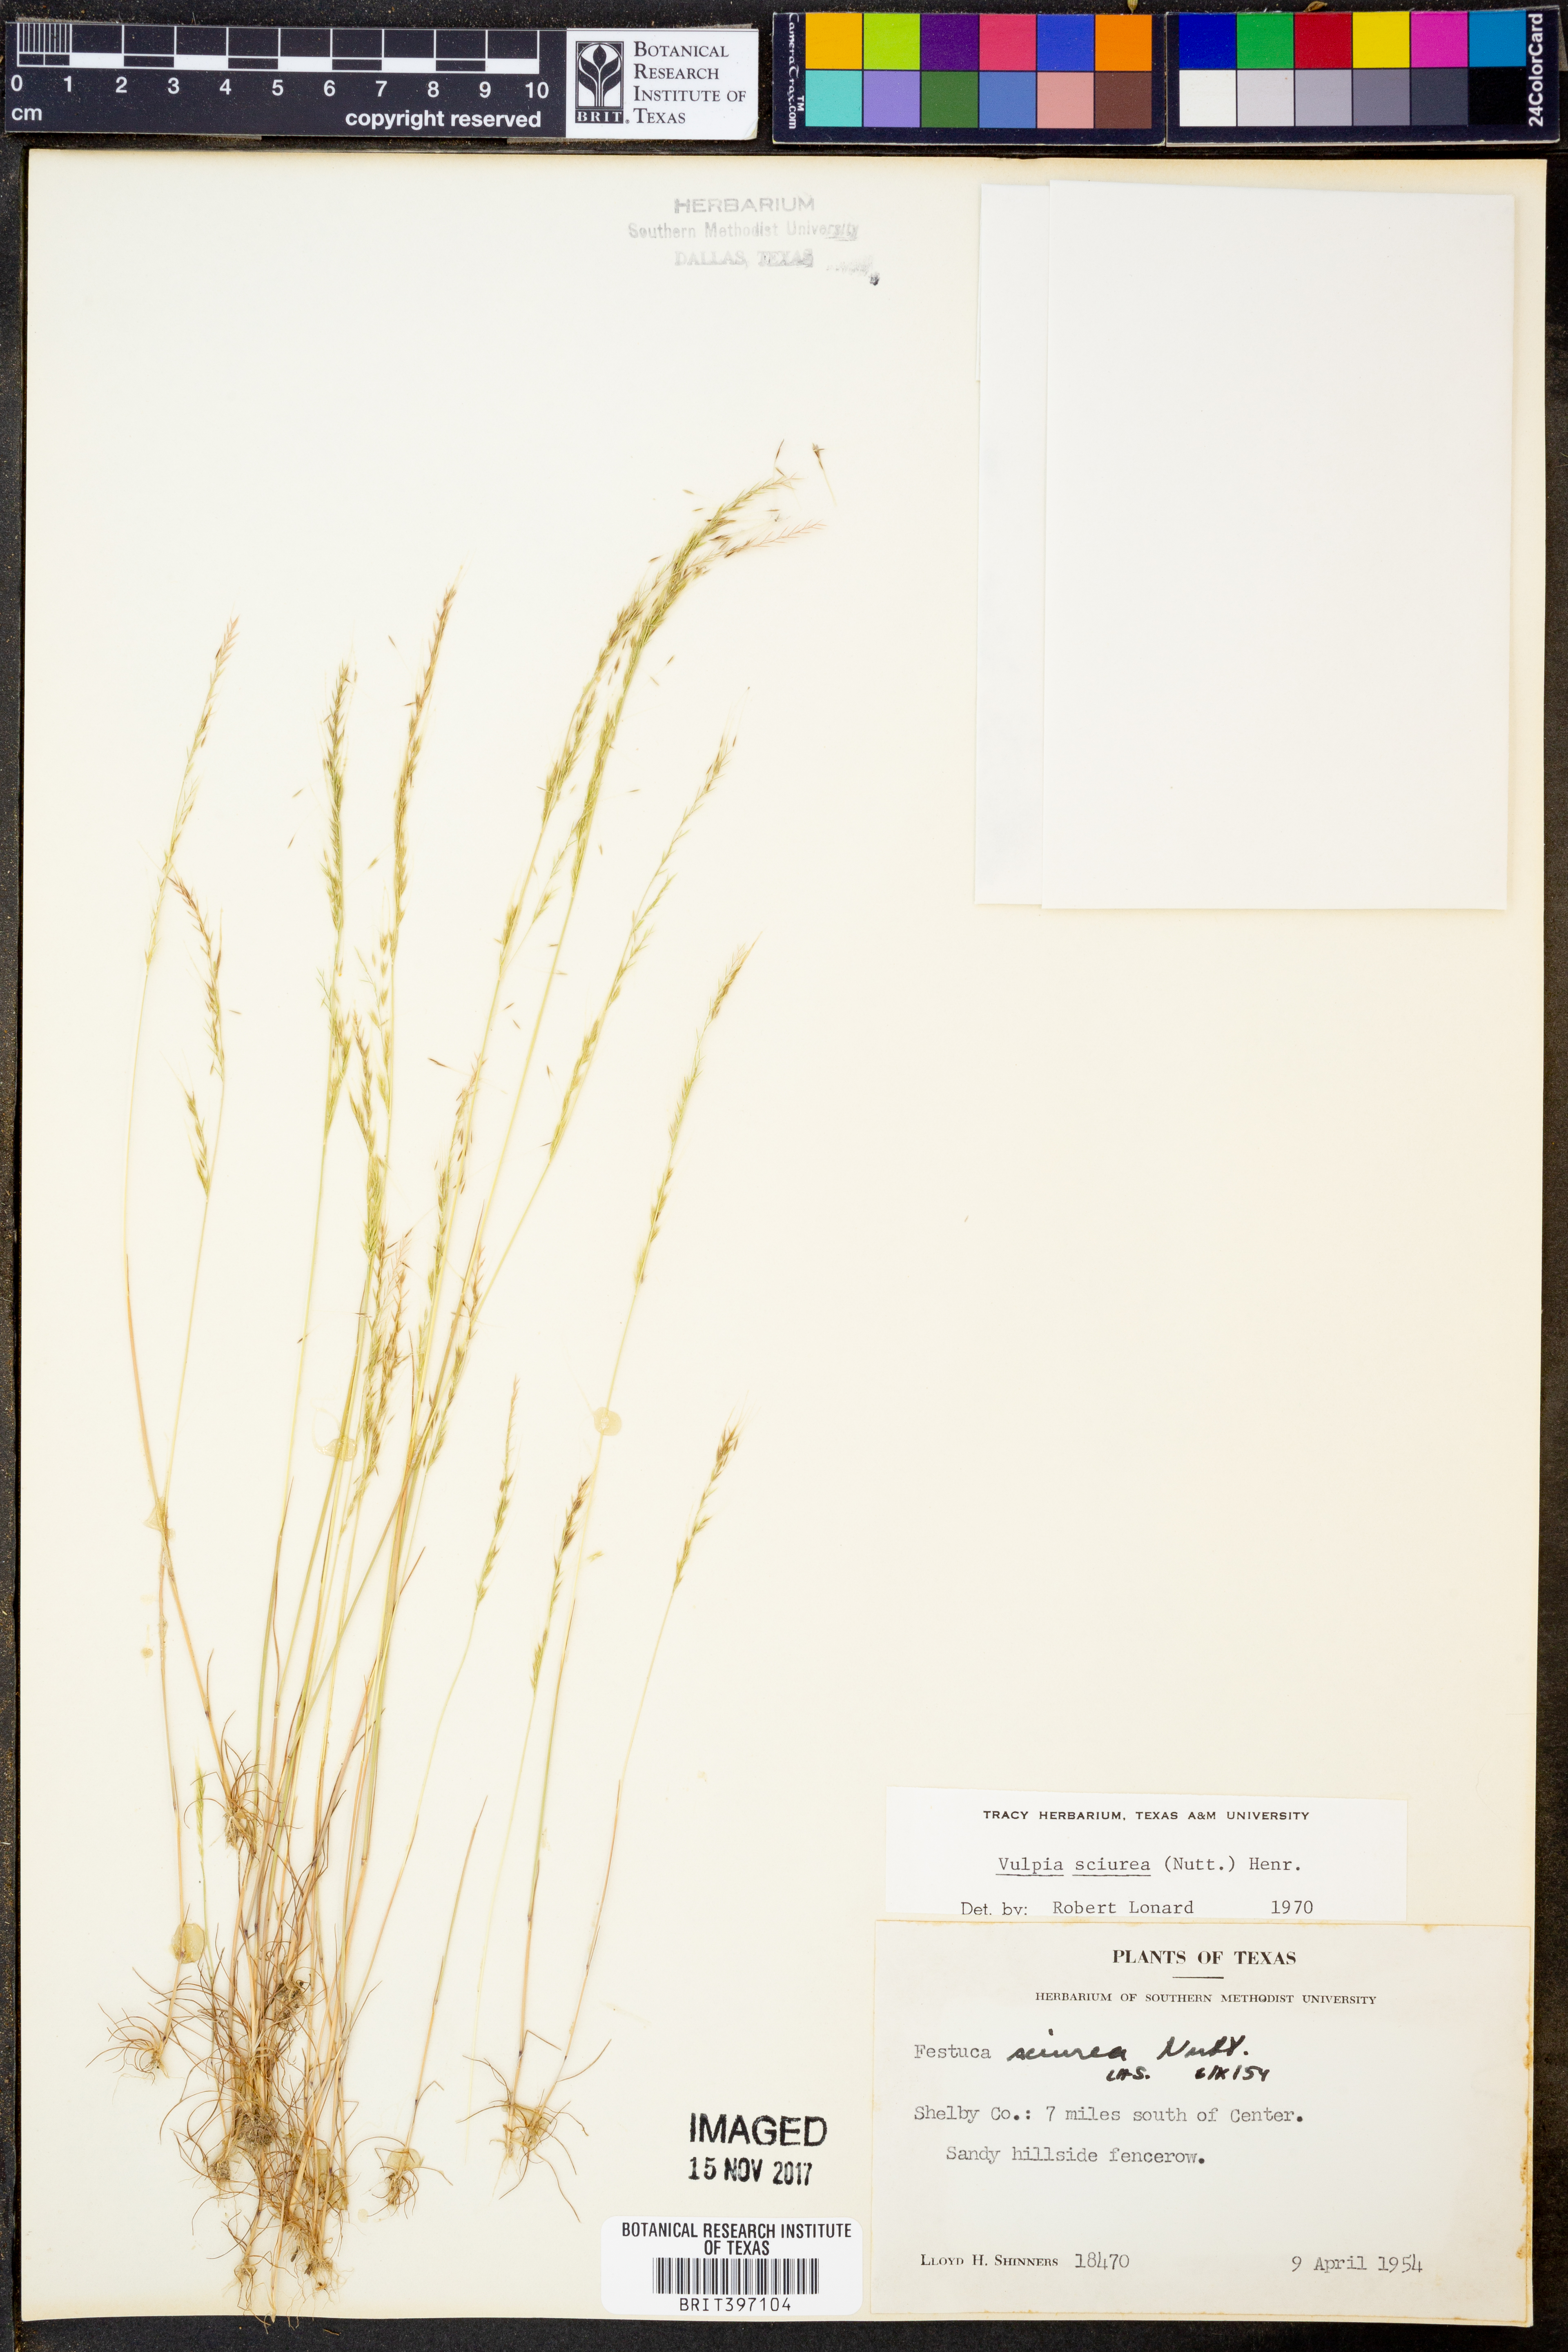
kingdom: Plantae
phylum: Tracheophyta
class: Liliopsida
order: Poales
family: Poaceae
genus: Festuca
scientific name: Festuca sciurea
